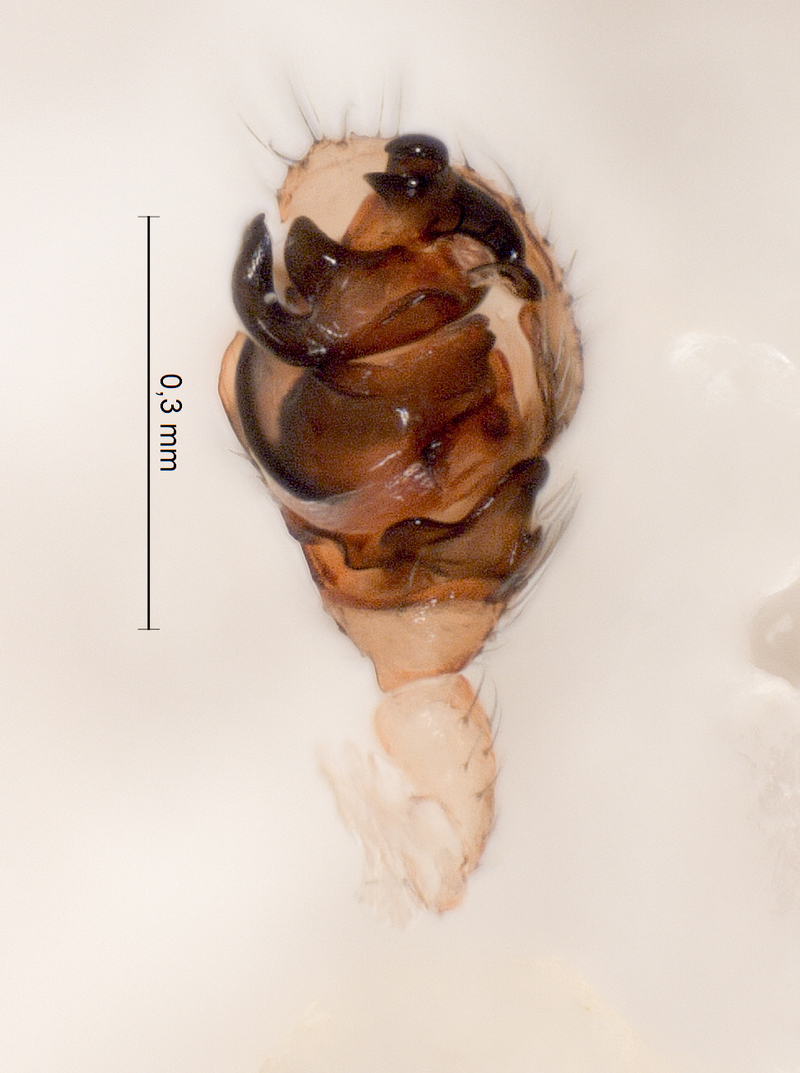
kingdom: Animalia
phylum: Arthropoda
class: Arachnida
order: Araneae
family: Linyphiidae
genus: Diplocephalus
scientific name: Diplocephalus latifrons
